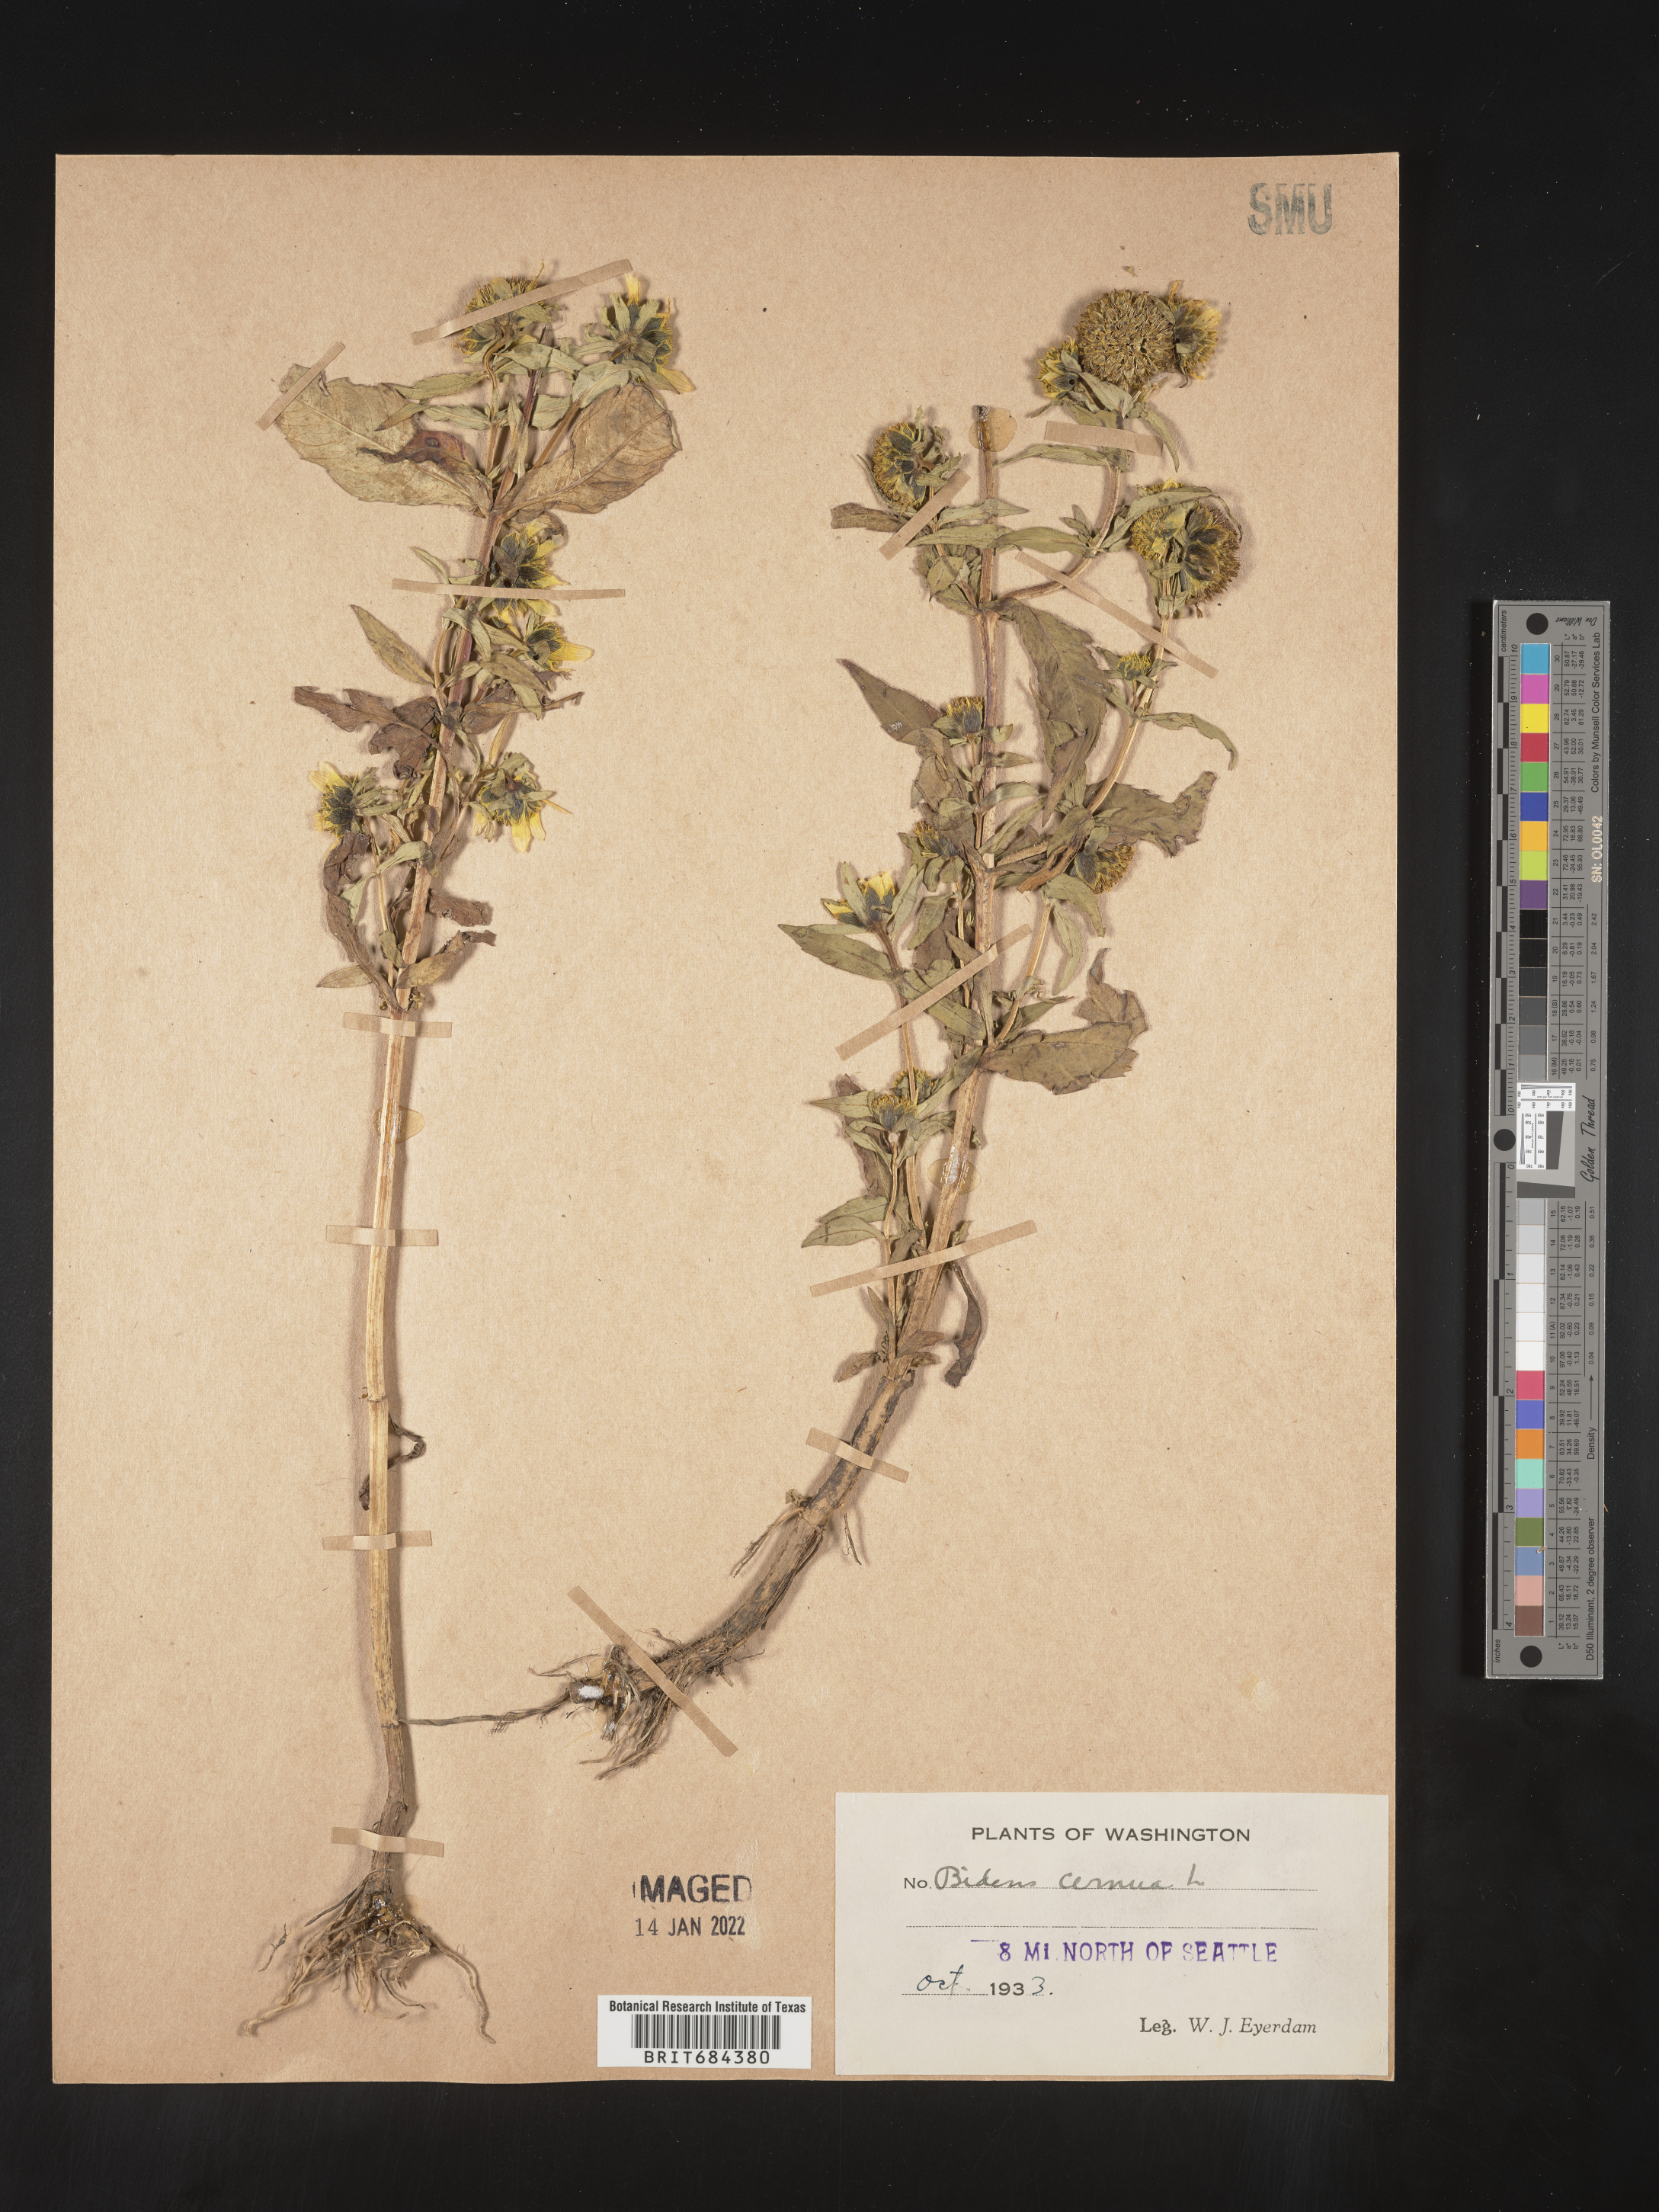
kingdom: Plantae
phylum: Tracheophyta
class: Magnoliopsida
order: Asterales
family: Asteraceae
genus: Bidens
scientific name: Bidens cernua
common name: Nodding bur-marigold
